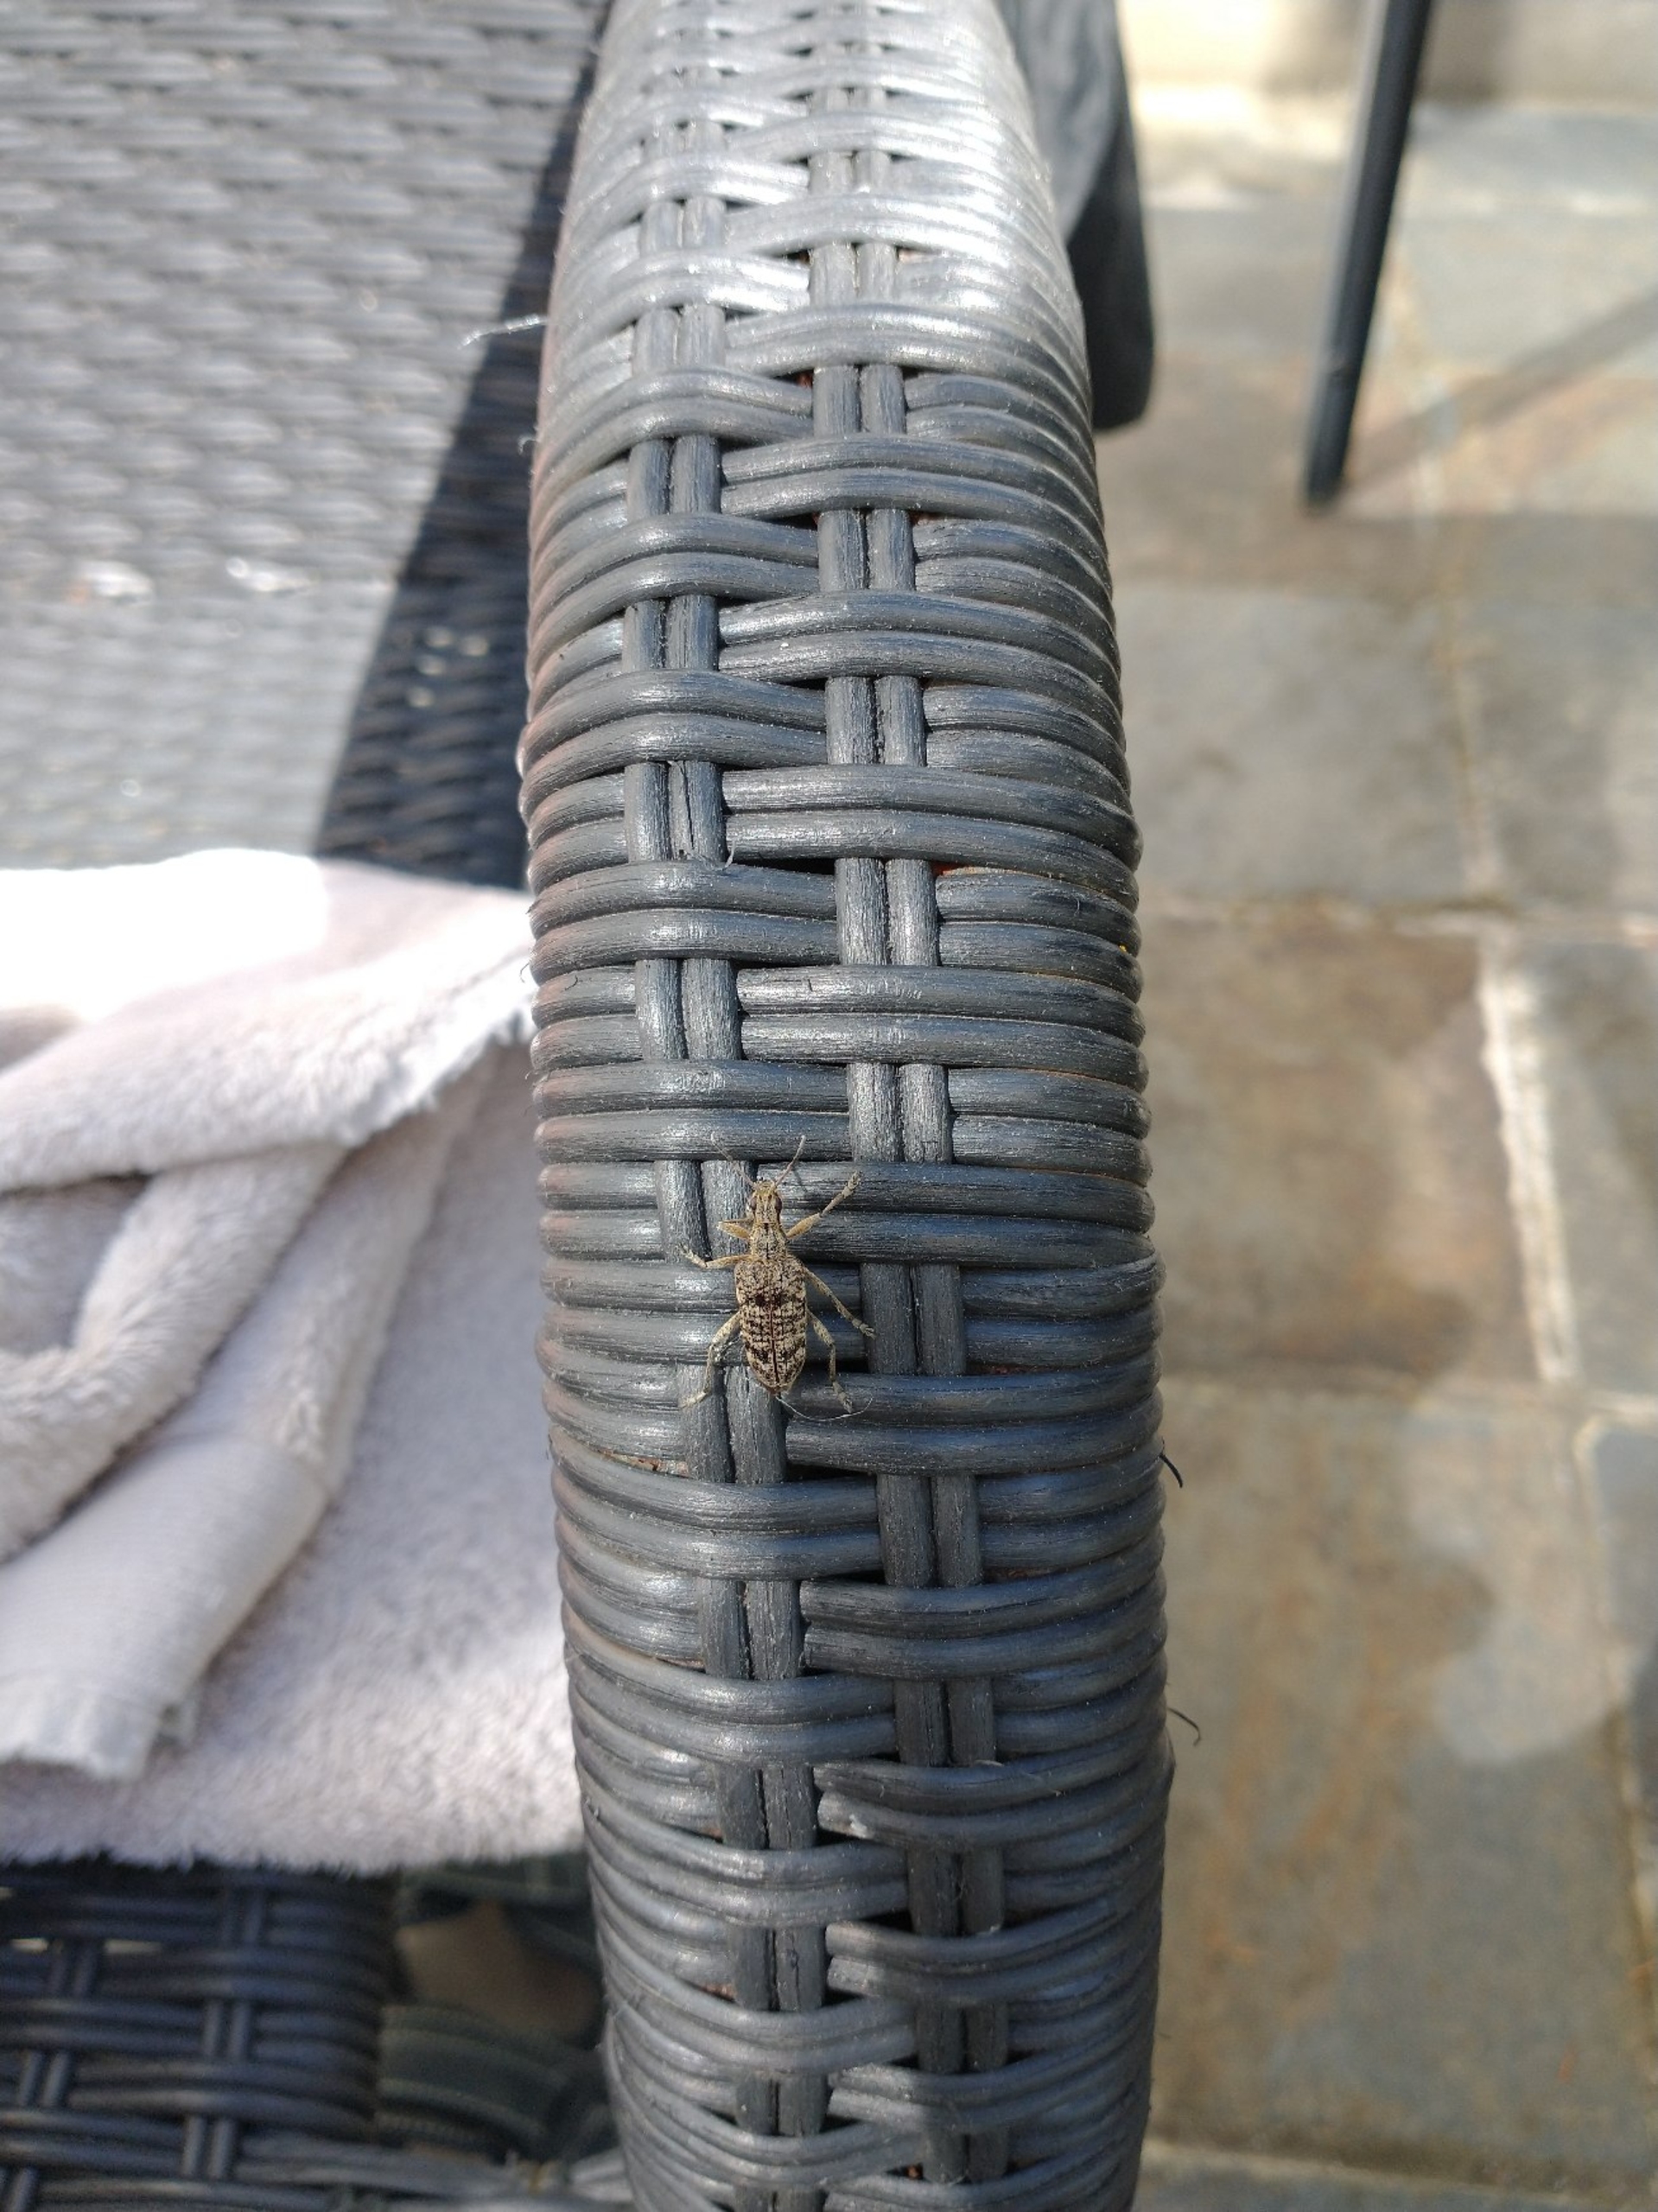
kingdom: Animalia
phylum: Arthropoda
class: Insecta
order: Coleoptera
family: Cerambycidae
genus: Rhagium
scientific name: Rhagium inquisitor
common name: Fyrretandbuk
